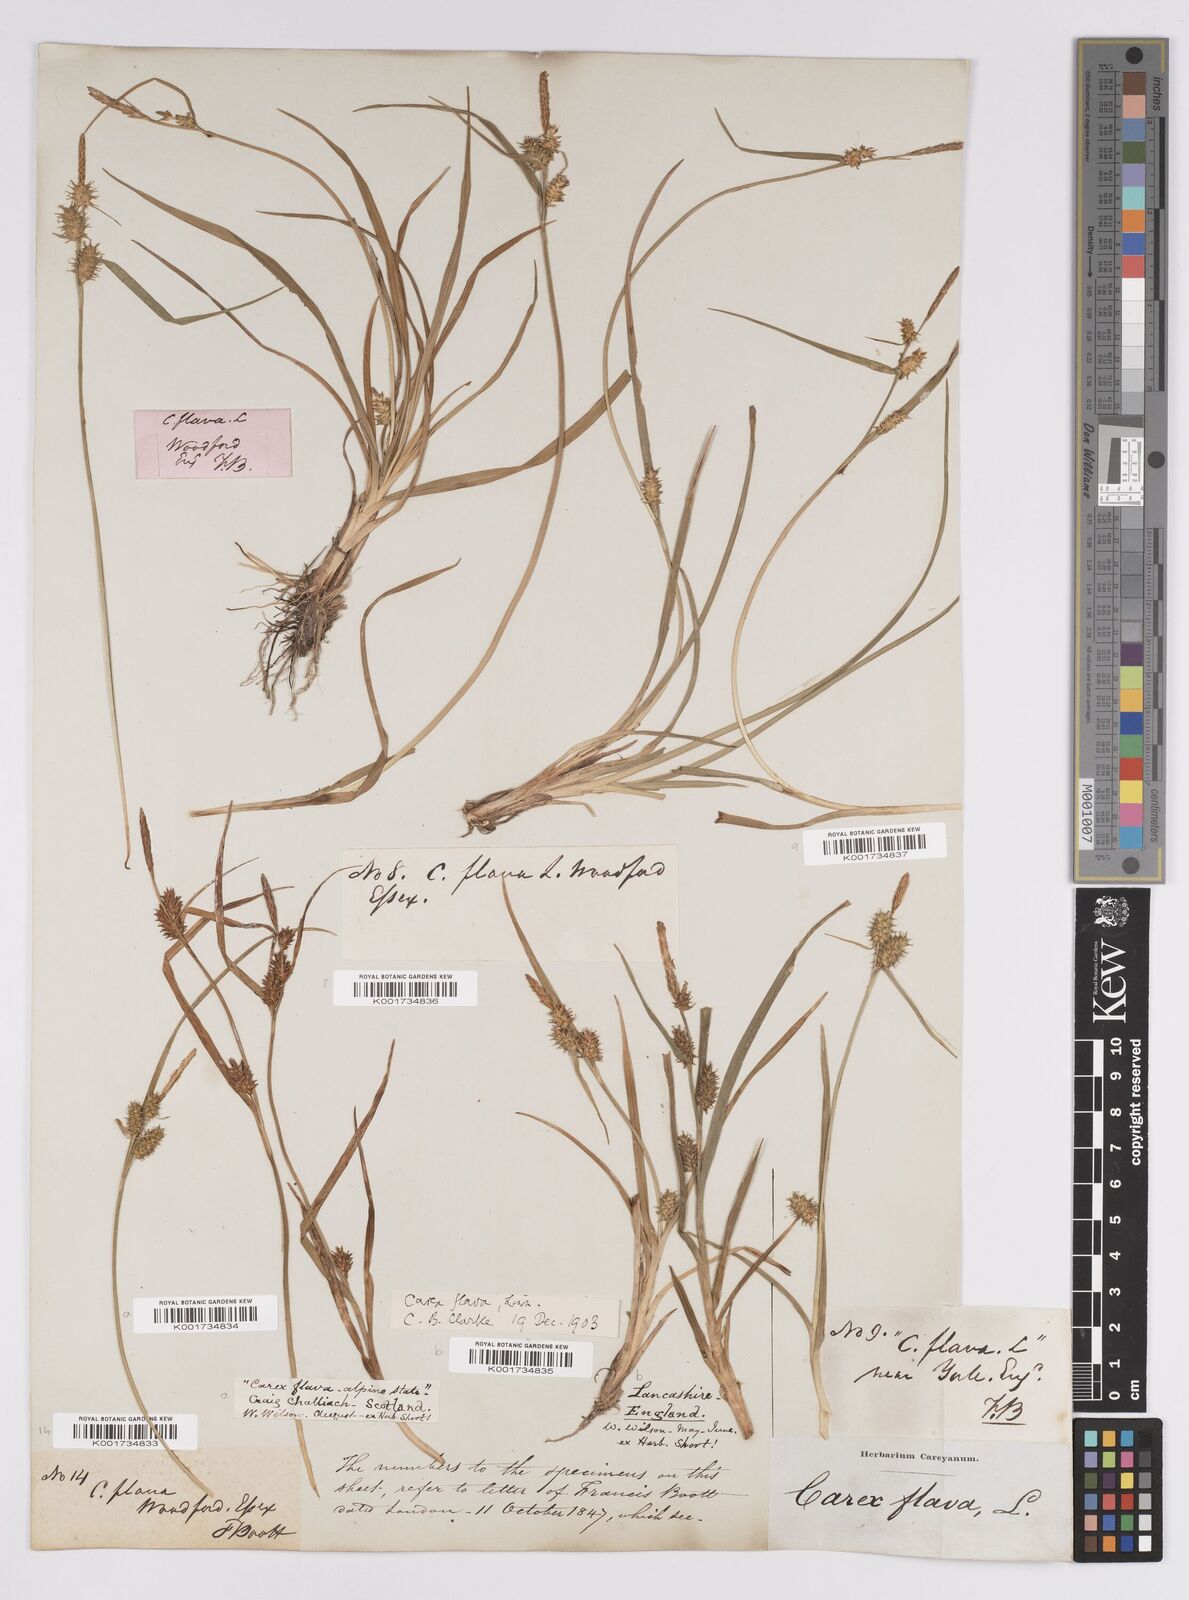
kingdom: Plantae
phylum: Tracheophyta
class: Liliopsida
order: Poales
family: Cyperaceae
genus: Carex
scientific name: Carex flava
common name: Large yellow-sedge
